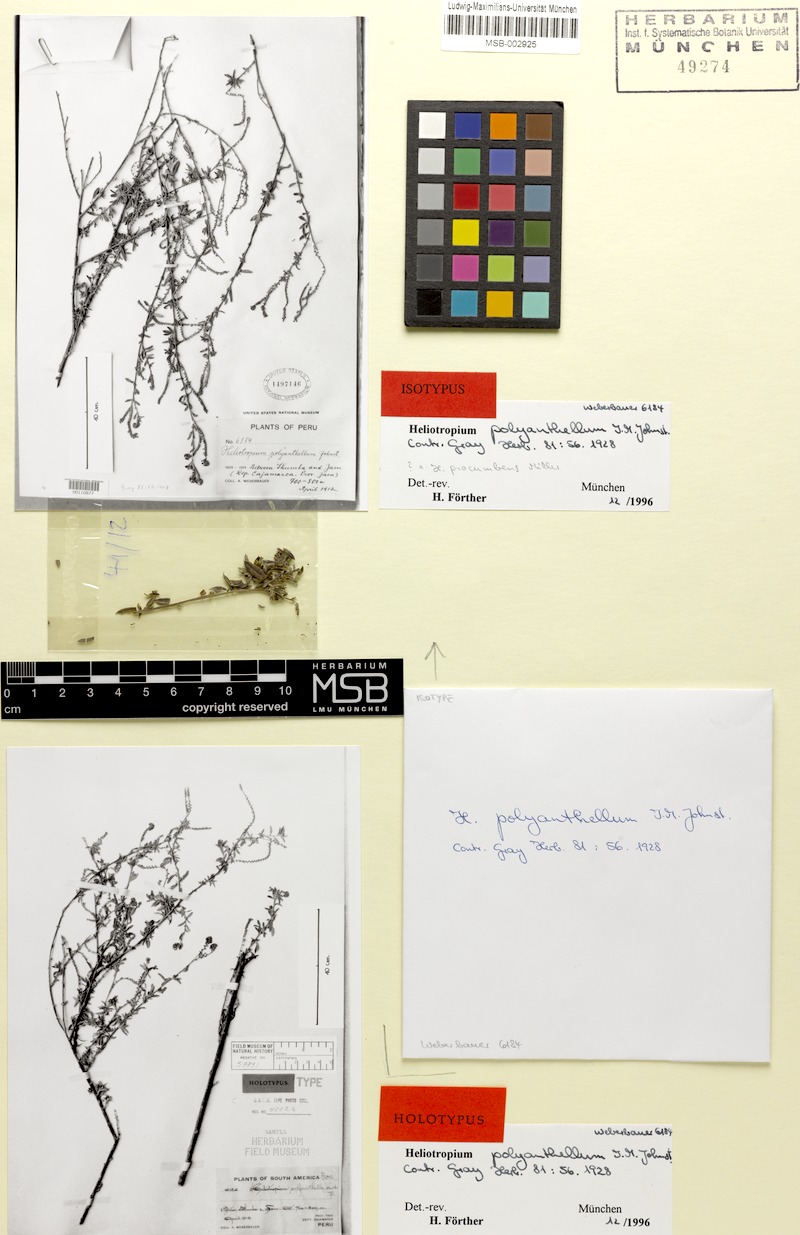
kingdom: Plantae
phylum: Tracheophyta
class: Magnoliopsida
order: Boraginales
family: Heliotropiaceae
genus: Euploca
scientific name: Euploca polyanthella
